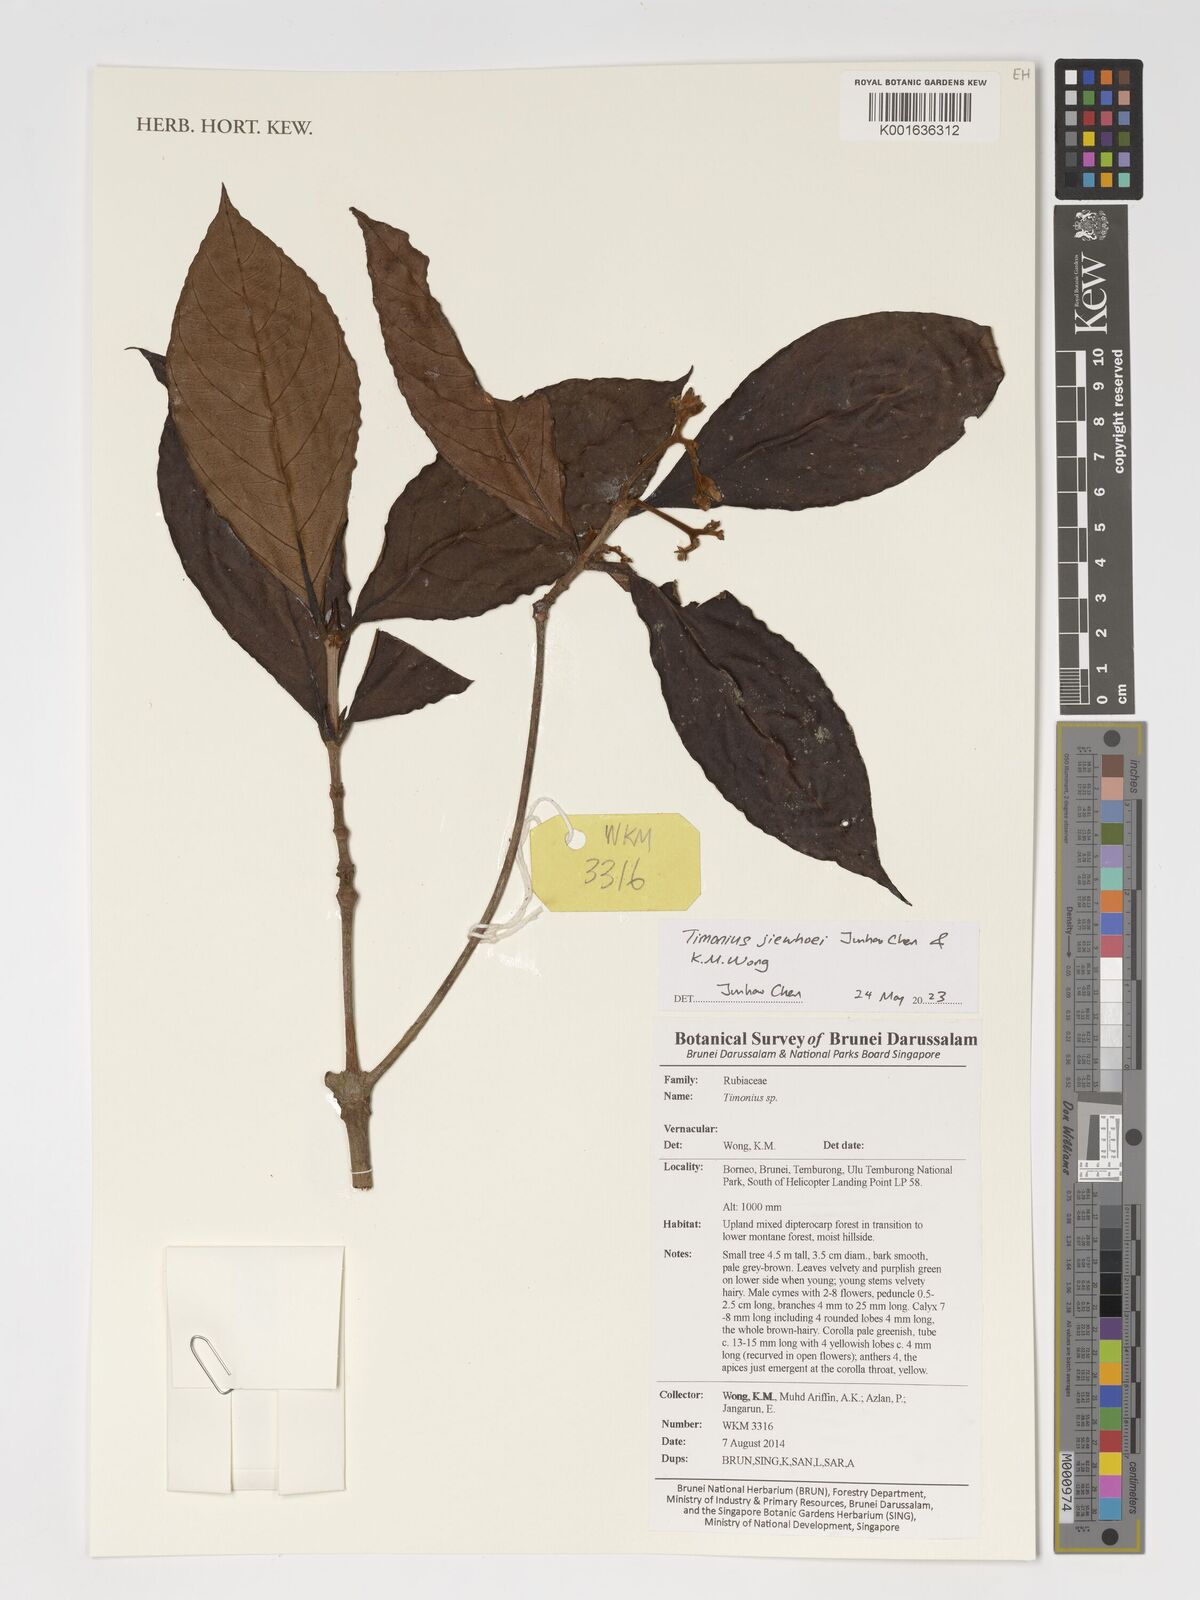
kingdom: Plantae
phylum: Tracheophyta
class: Magnoliopsida
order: Gentianales
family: Rubiaceae
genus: Timonius
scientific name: Timonius
